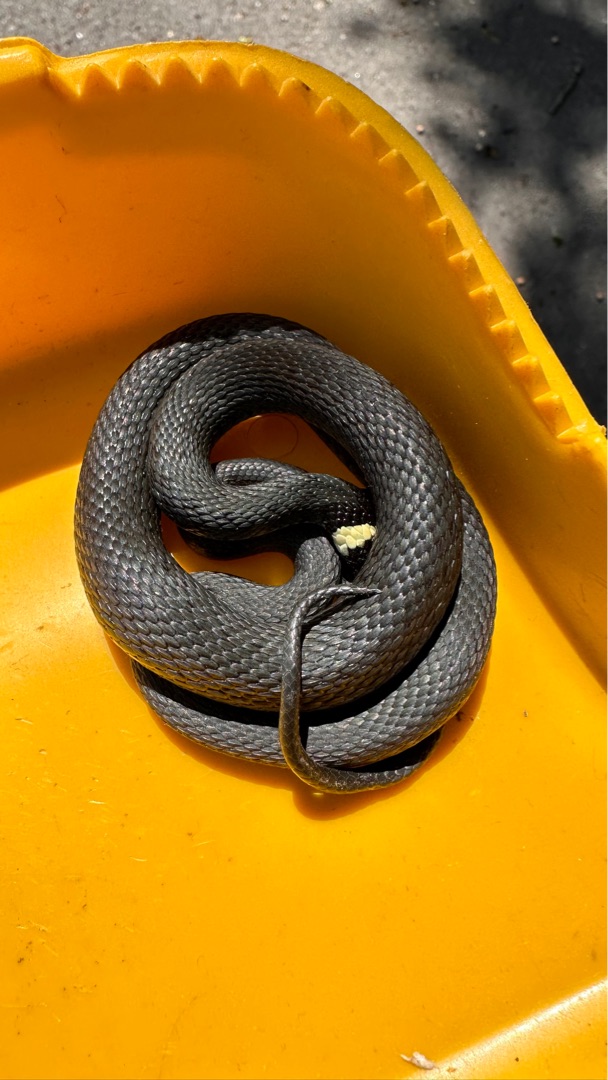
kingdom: Animalia
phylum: Chordata
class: Squamata
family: Colubridae
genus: Natrix
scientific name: Natrix natrix
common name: Snog
